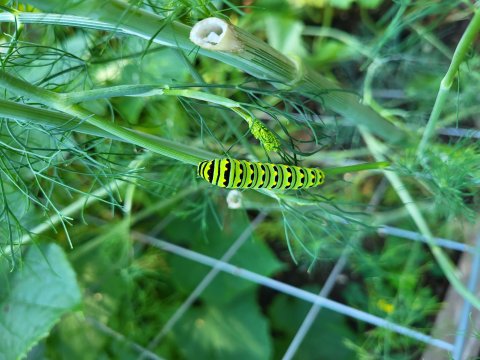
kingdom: Animalia
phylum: Arthropoda
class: Insecta
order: Lepidoptera
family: Papilionidae
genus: Papilio
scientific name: Papilio polyxenes
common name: Black Swallowtail
